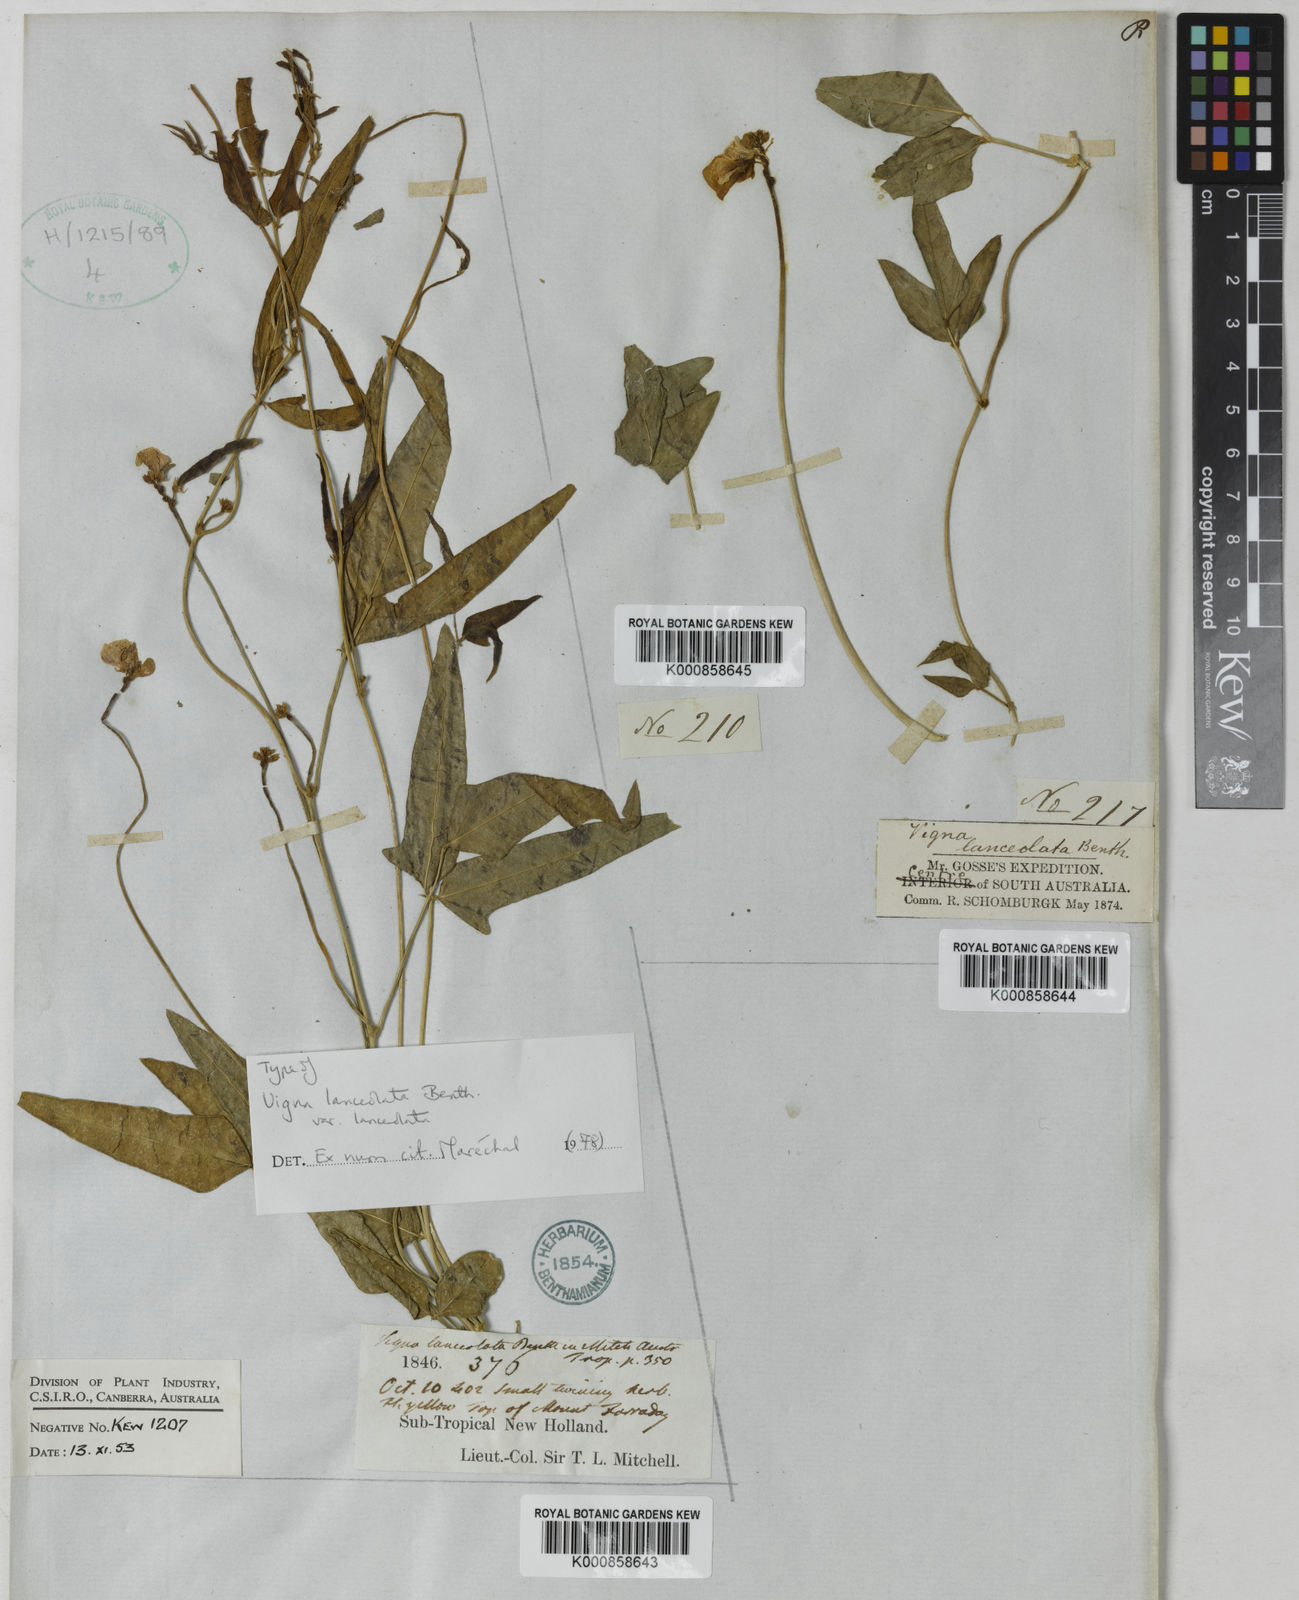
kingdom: Plantae
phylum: Tracheophyta
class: Magnoliopsida
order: Fabales
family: Fabaceae
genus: Vigna
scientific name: Vigna lanceolata
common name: Maloga-bean
